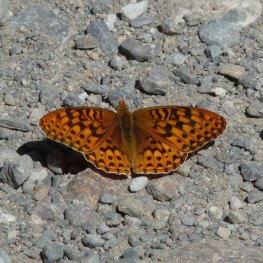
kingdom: Animalia
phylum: Arthropoda
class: Insecta
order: Lepidoptera
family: Nymphalidae
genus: Speyeria
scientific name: Speyeria hydaspe
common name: Hydaspe Fritillary
